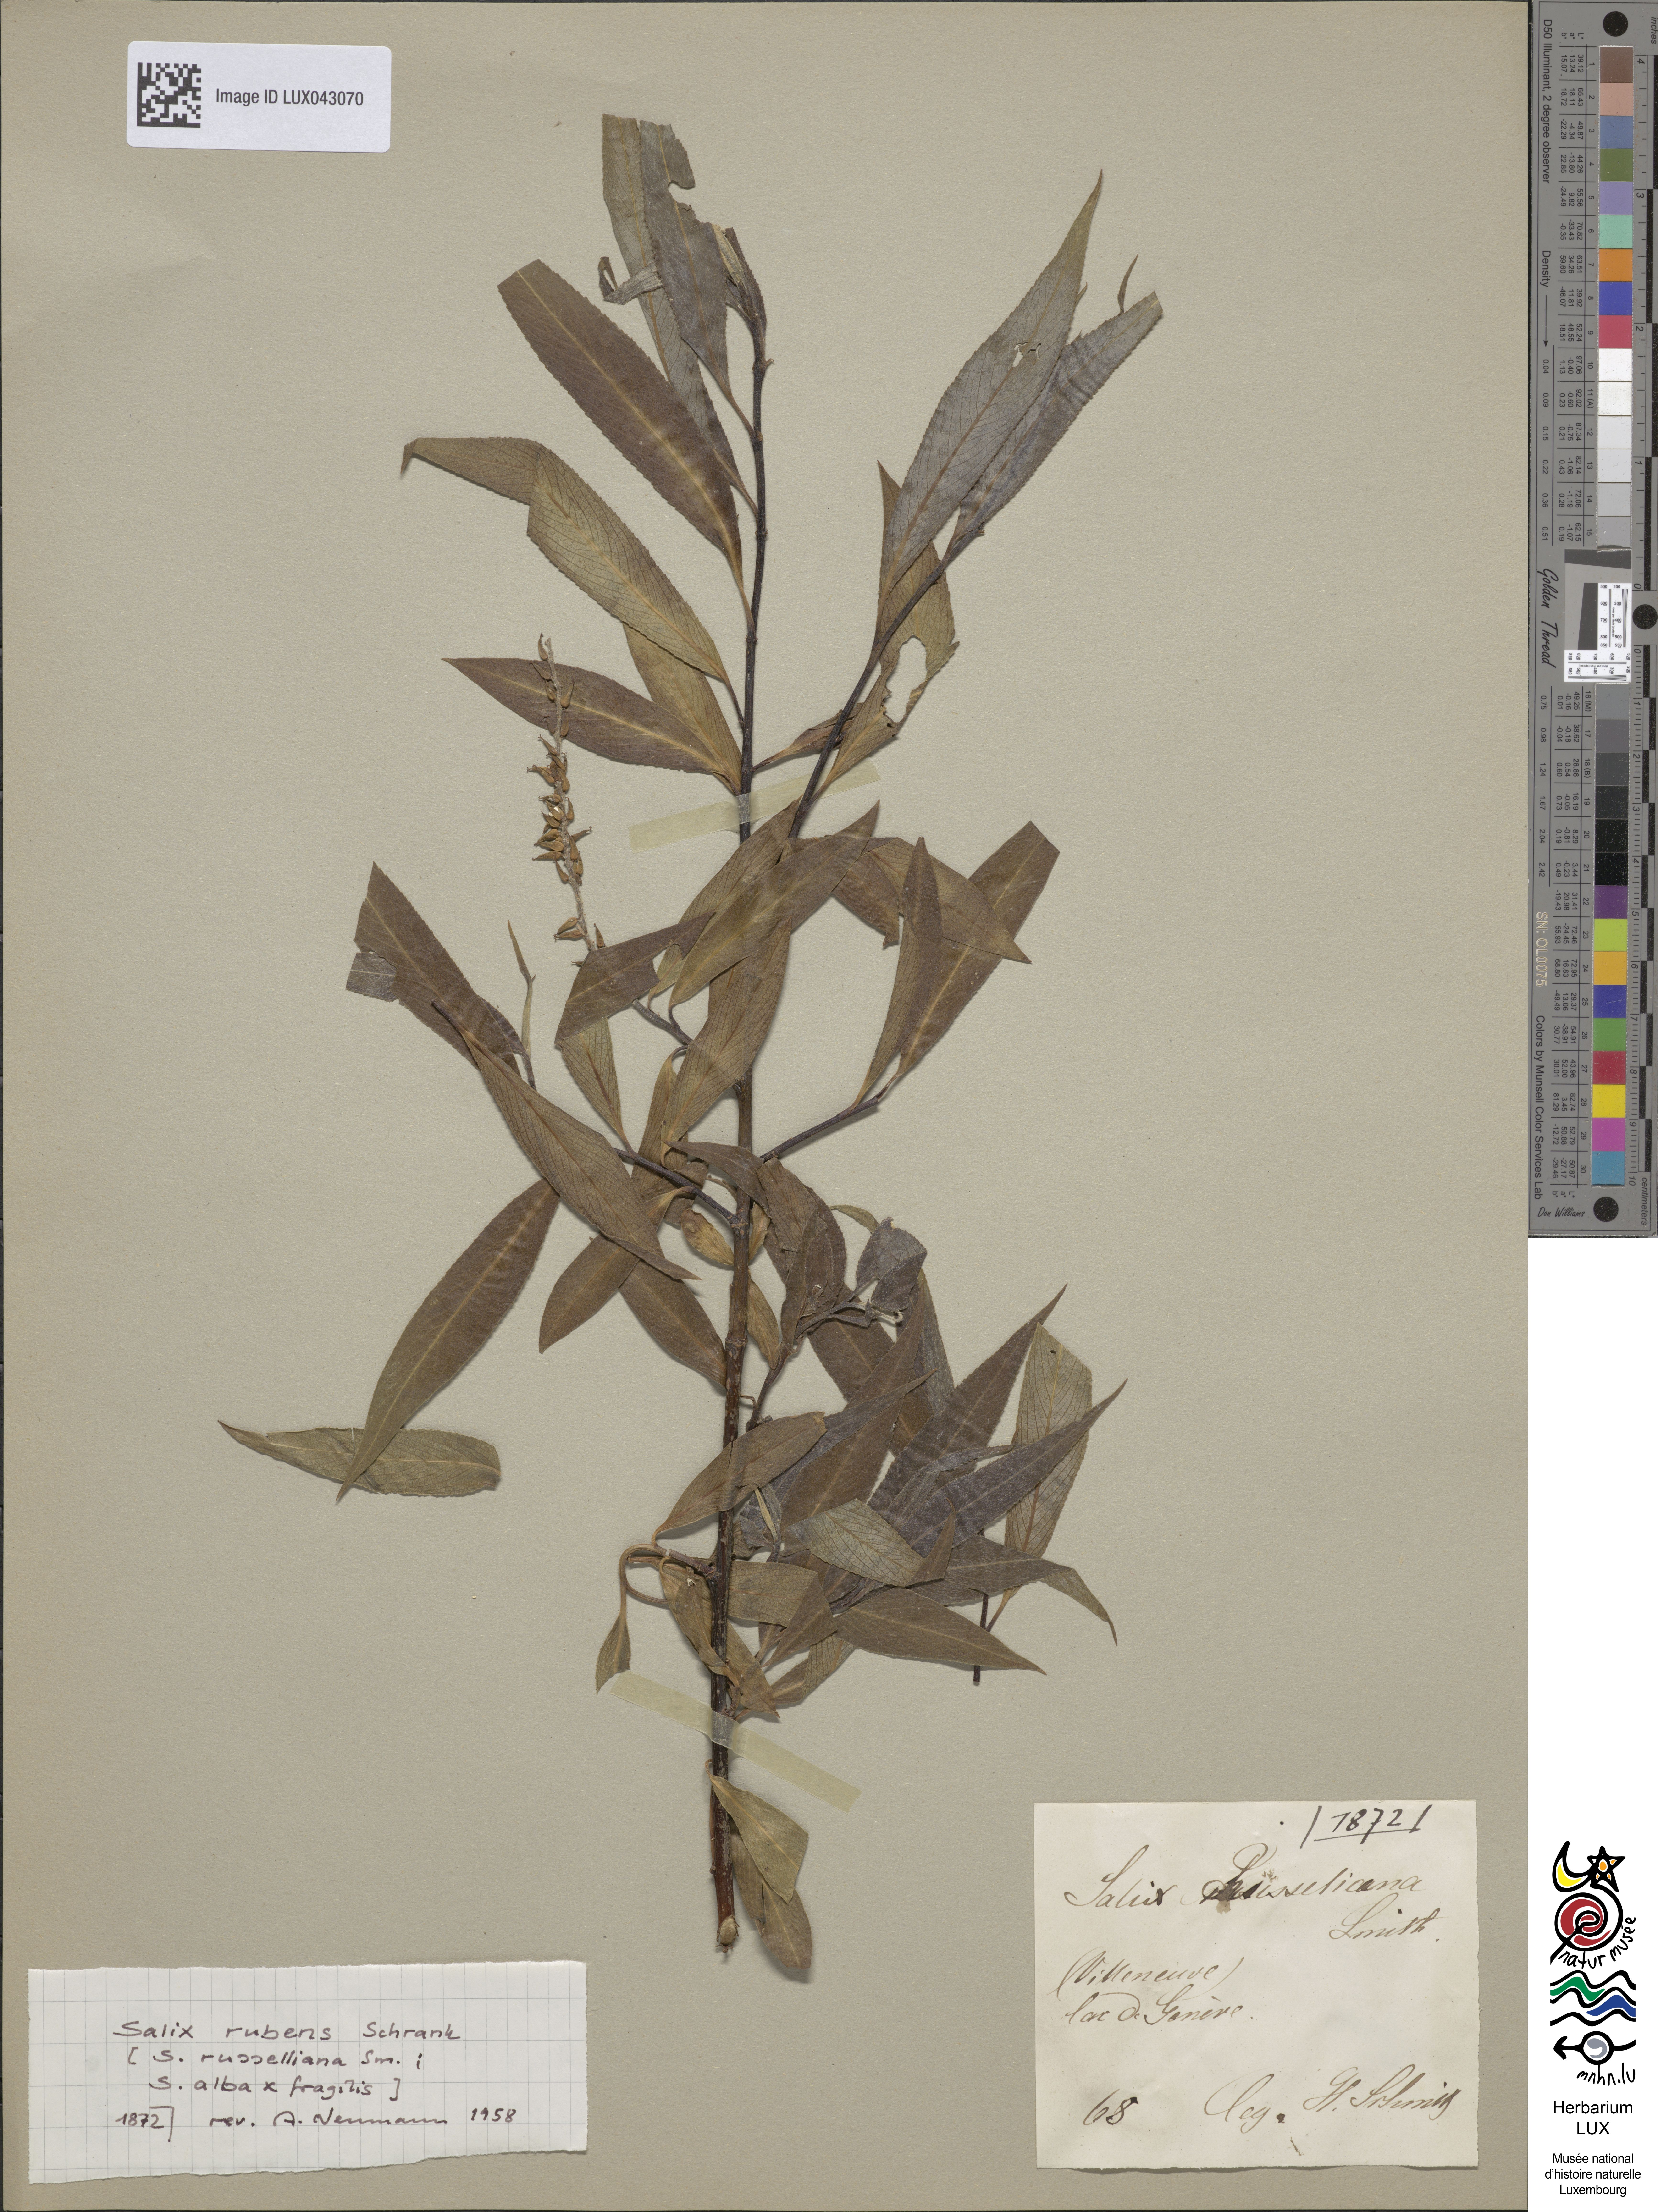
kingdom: Plantae
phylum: Tracheophyta
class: Magnoliopsida
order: Malpighiales
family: Salicaceae
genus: Salix
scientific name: Salix rubens
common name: Hybrid crack willow
